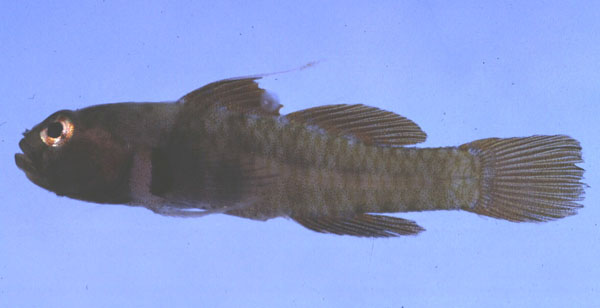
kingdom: Animalia
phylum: Chordata
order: Perciformes
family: Gobiidae
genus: Eviota
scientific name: Eviota monostigma
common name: Singlespot eviota
